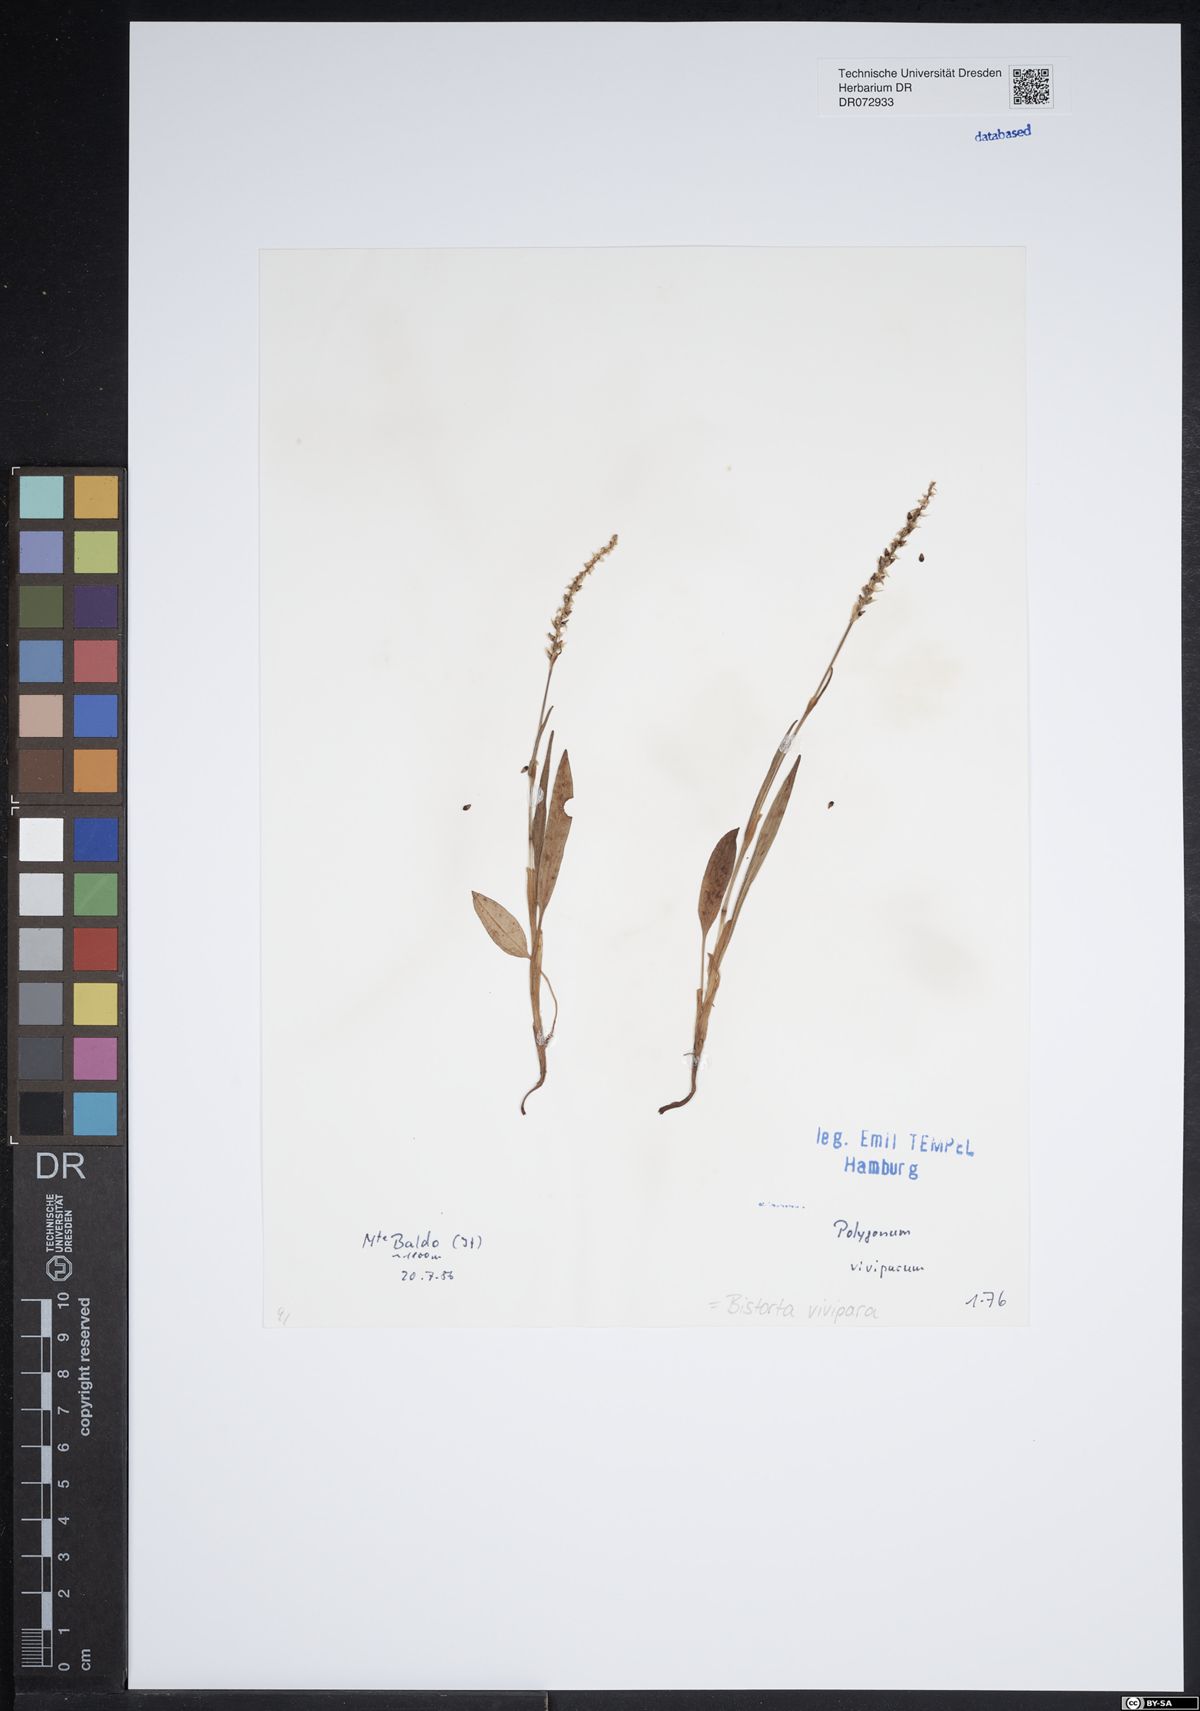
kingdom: Plantae
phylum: Tracheophyta
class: Magnoliopsida
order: Caryophyllales
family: Polygonaceae
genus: Bistorta
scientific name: Bistorta vivipara
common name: Alpine bistort
